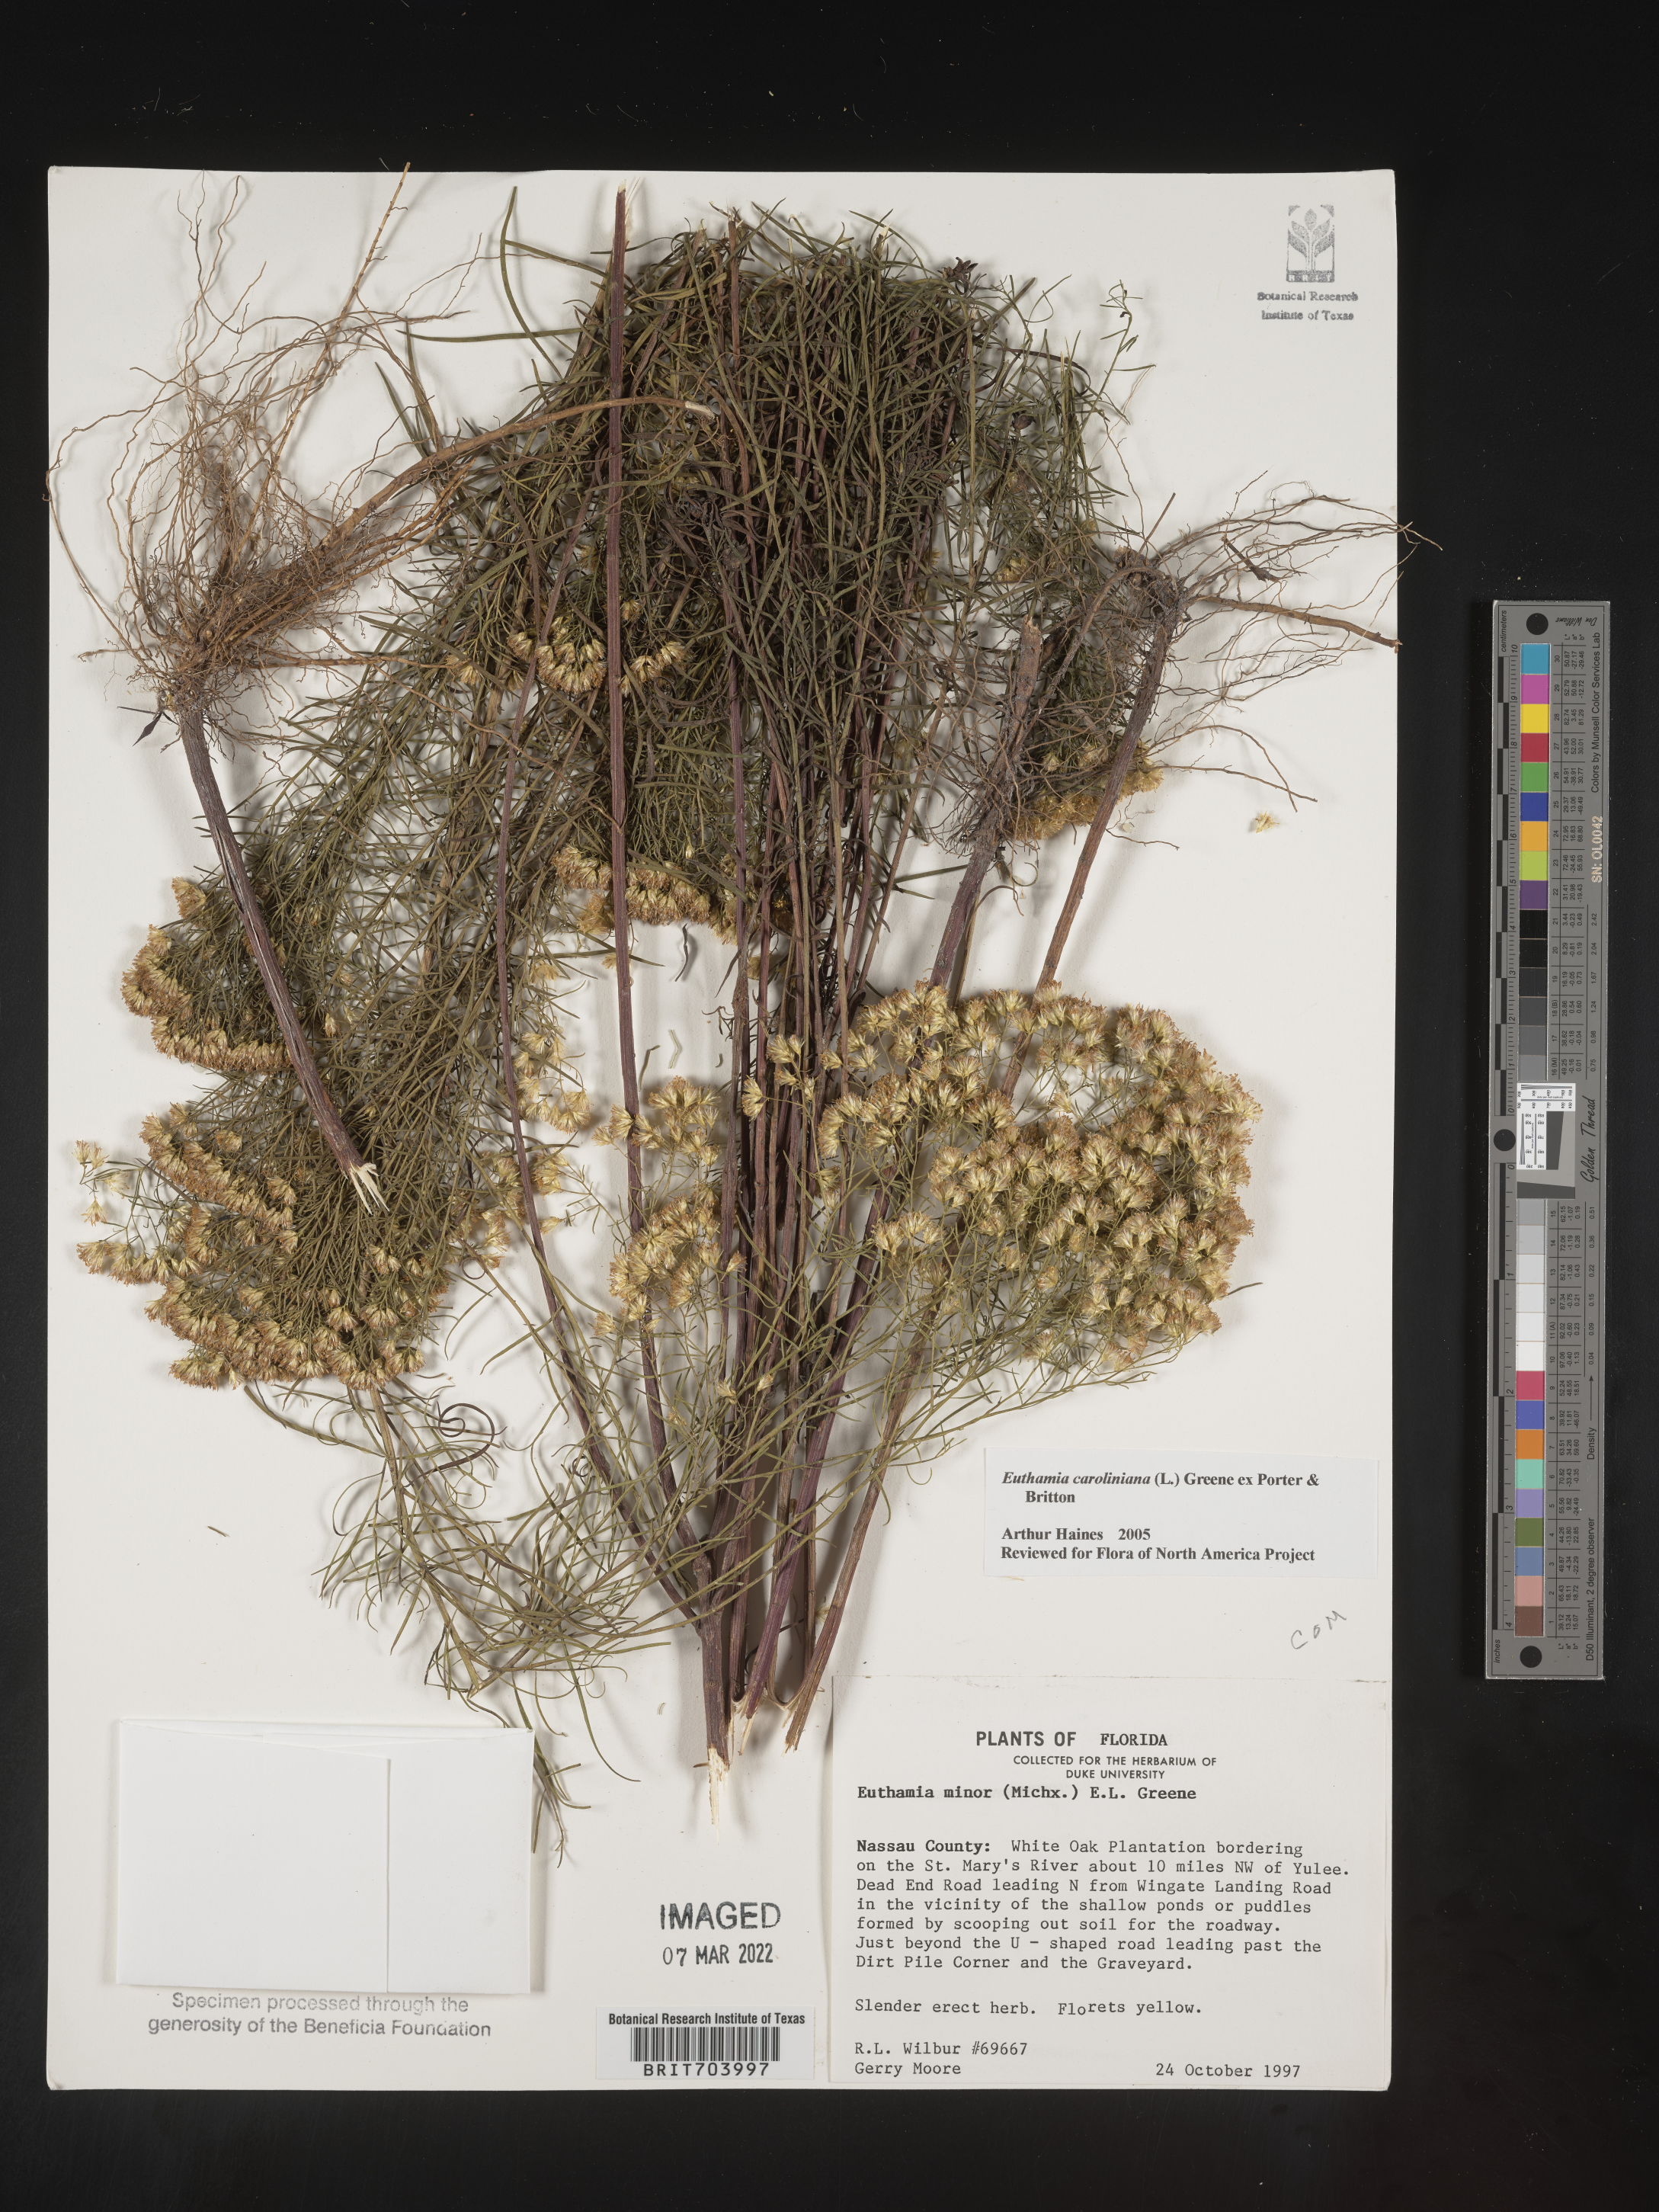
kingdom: Plantae
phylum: Tracheophyta
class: Magnoliopsida
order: Asterales
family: Asteraceae
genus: Euthamia
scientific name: Euthamia caroliniana
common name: Coastal plain goldentop
